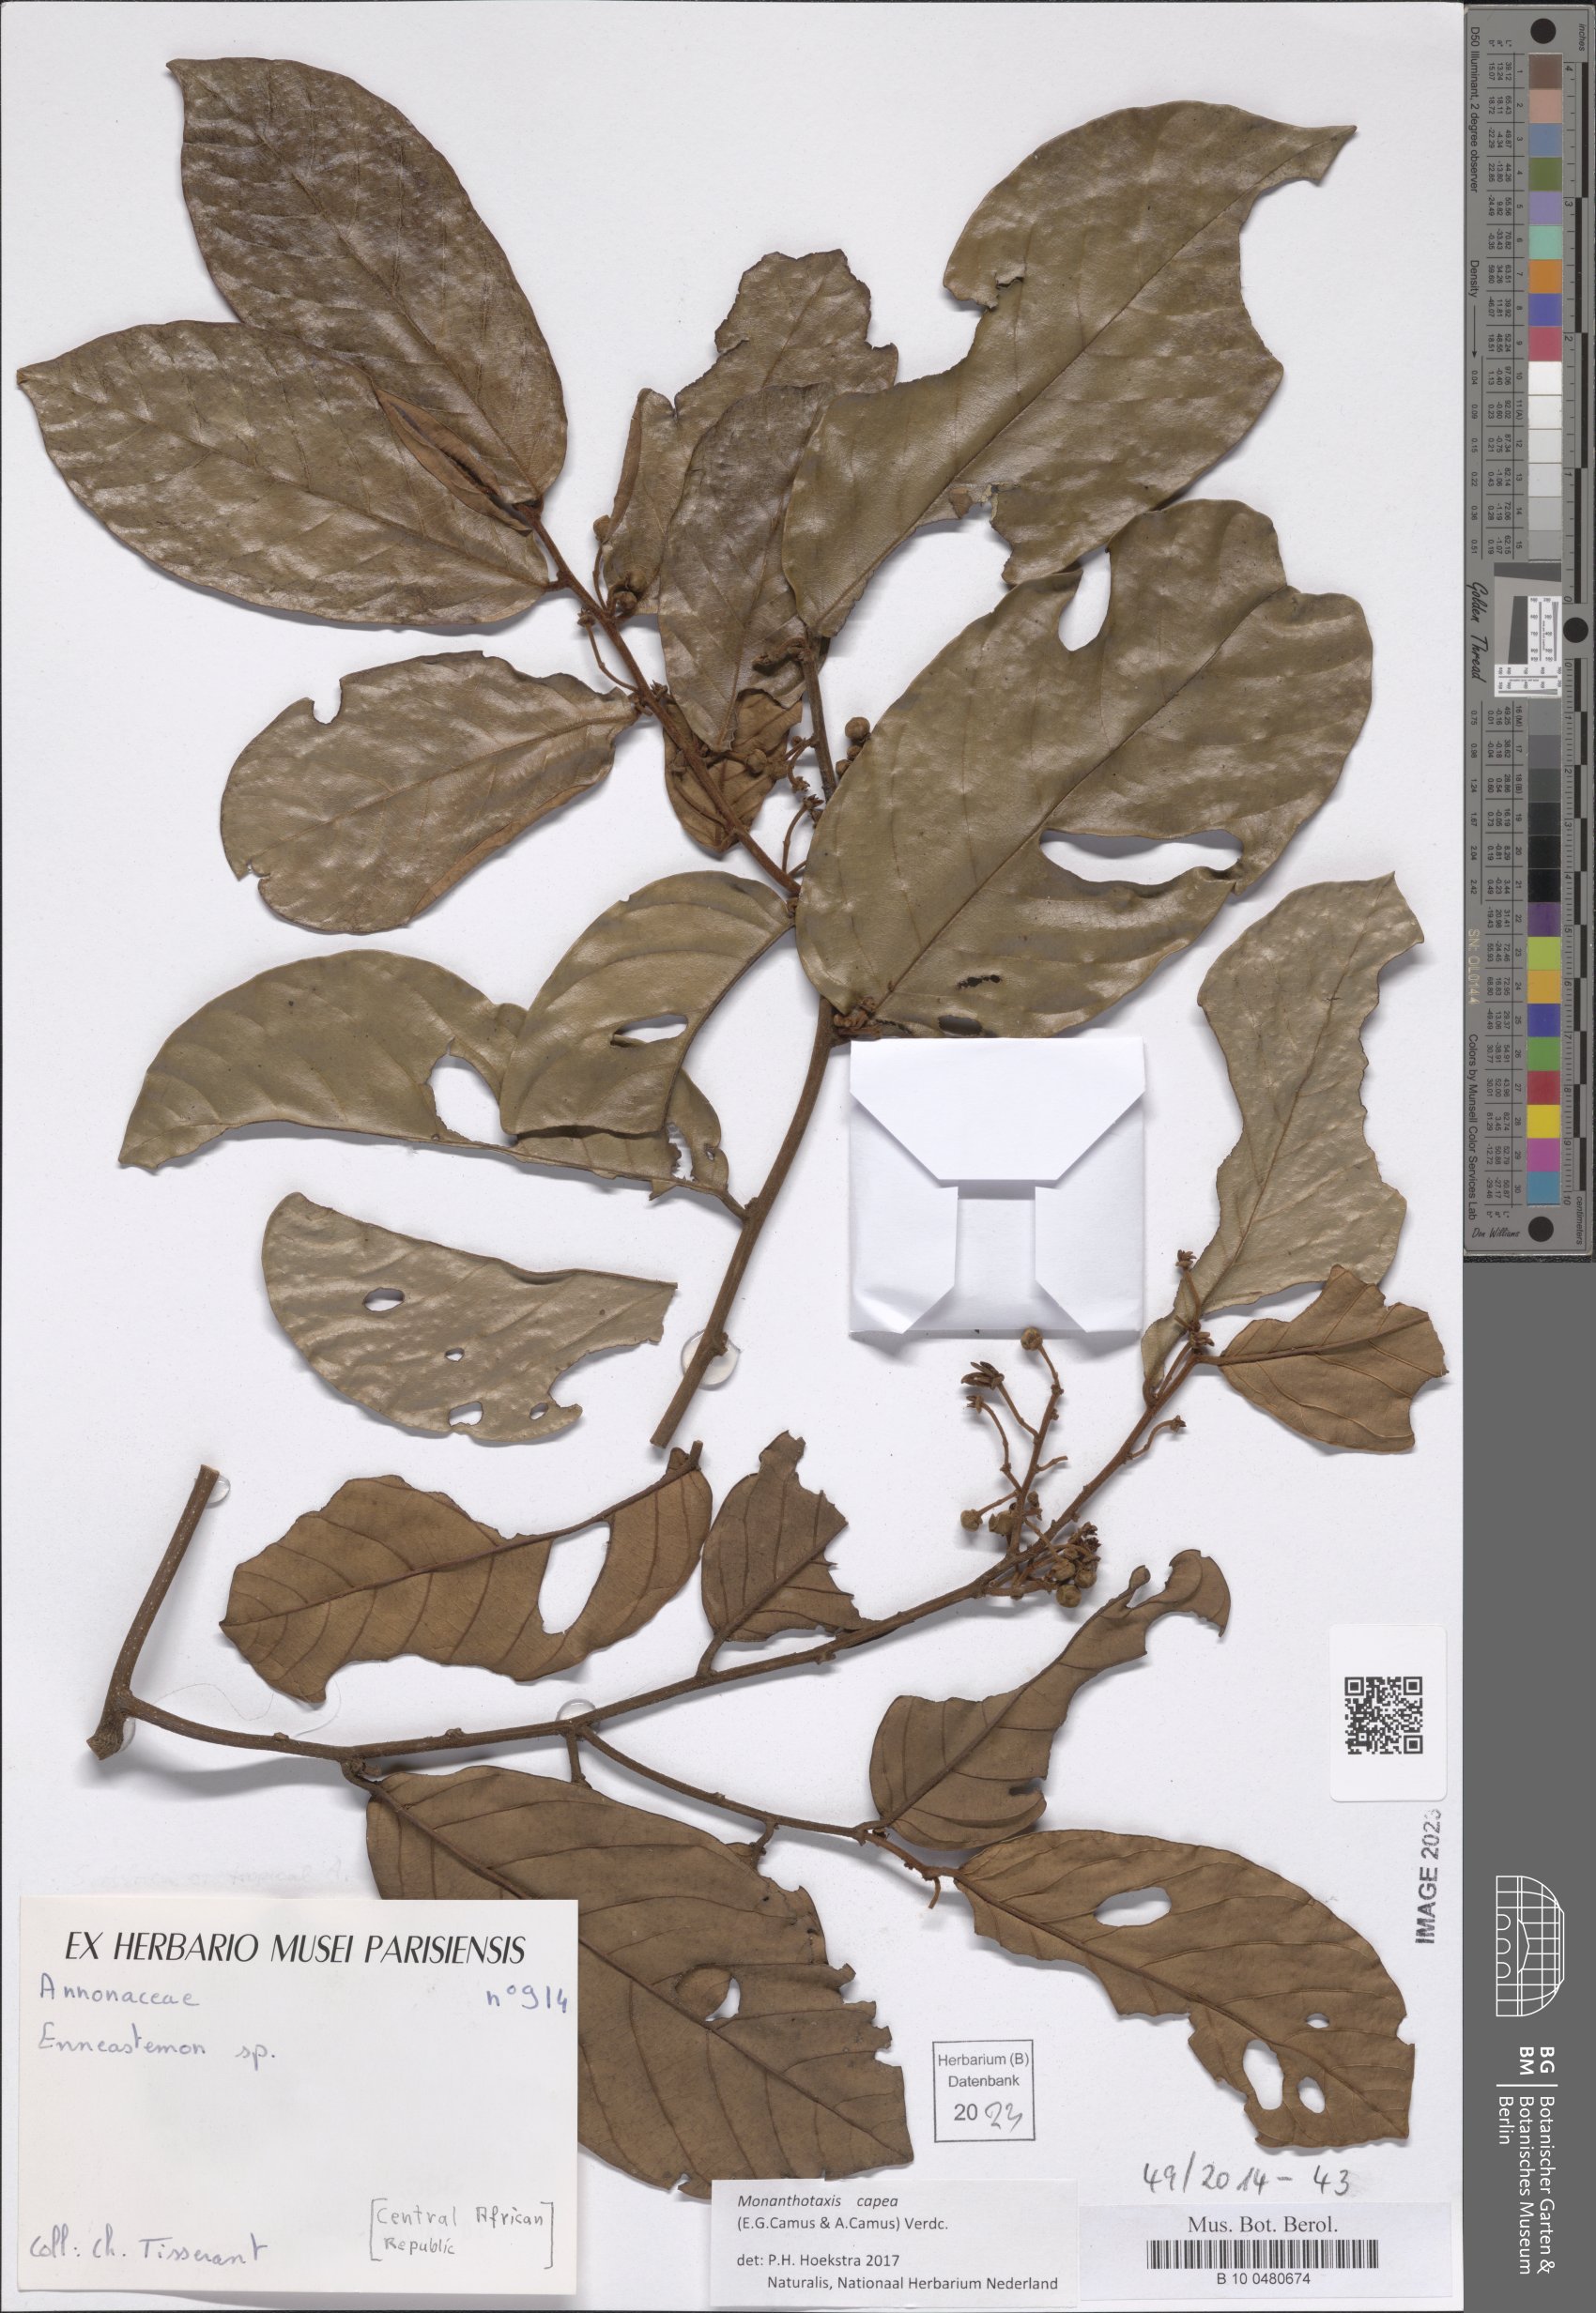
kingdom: Plantae
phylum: Tracheophyta
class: Magnoliopsida
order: Magnoliales
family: Annonaceae
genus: Monanthotaxis
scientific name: Monanthotaxis capea
